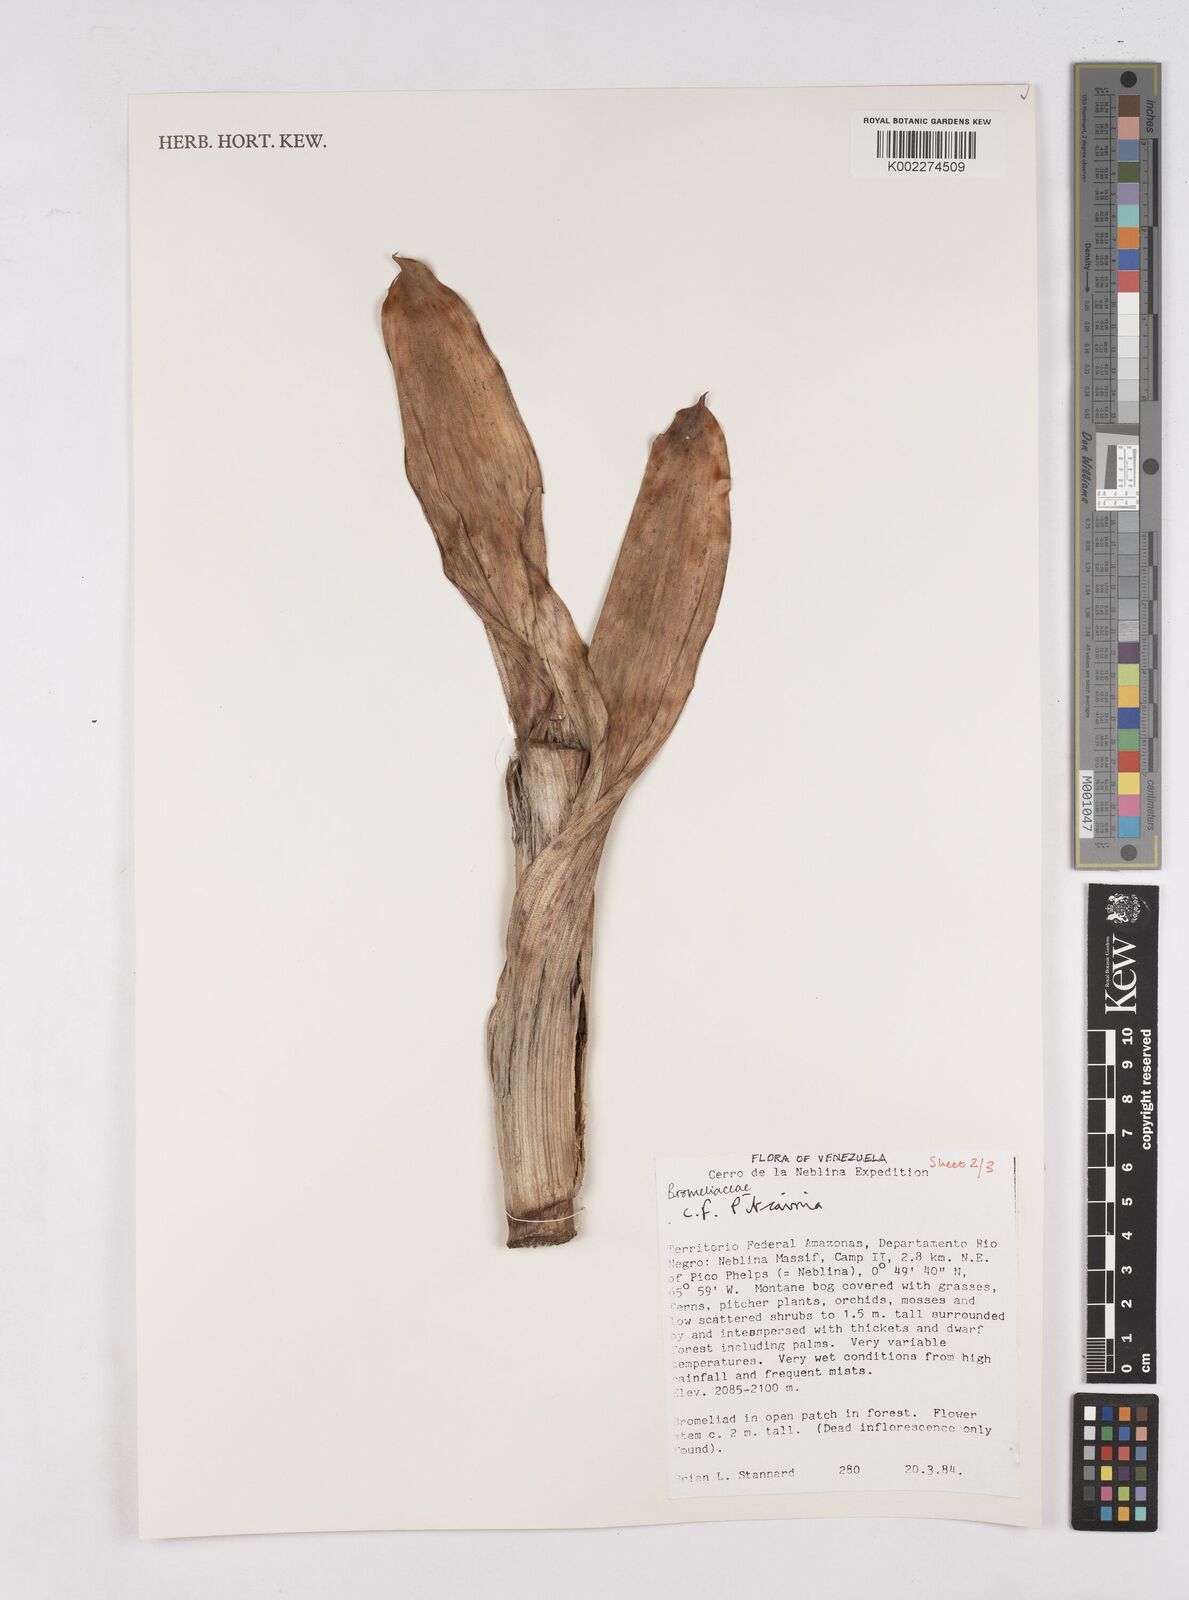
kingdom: Plantae
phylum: Tracheophyta
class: Liliopsida
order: Poales
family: Bromeliaceae
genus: Pitcairnia
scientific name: Pitcairnia
